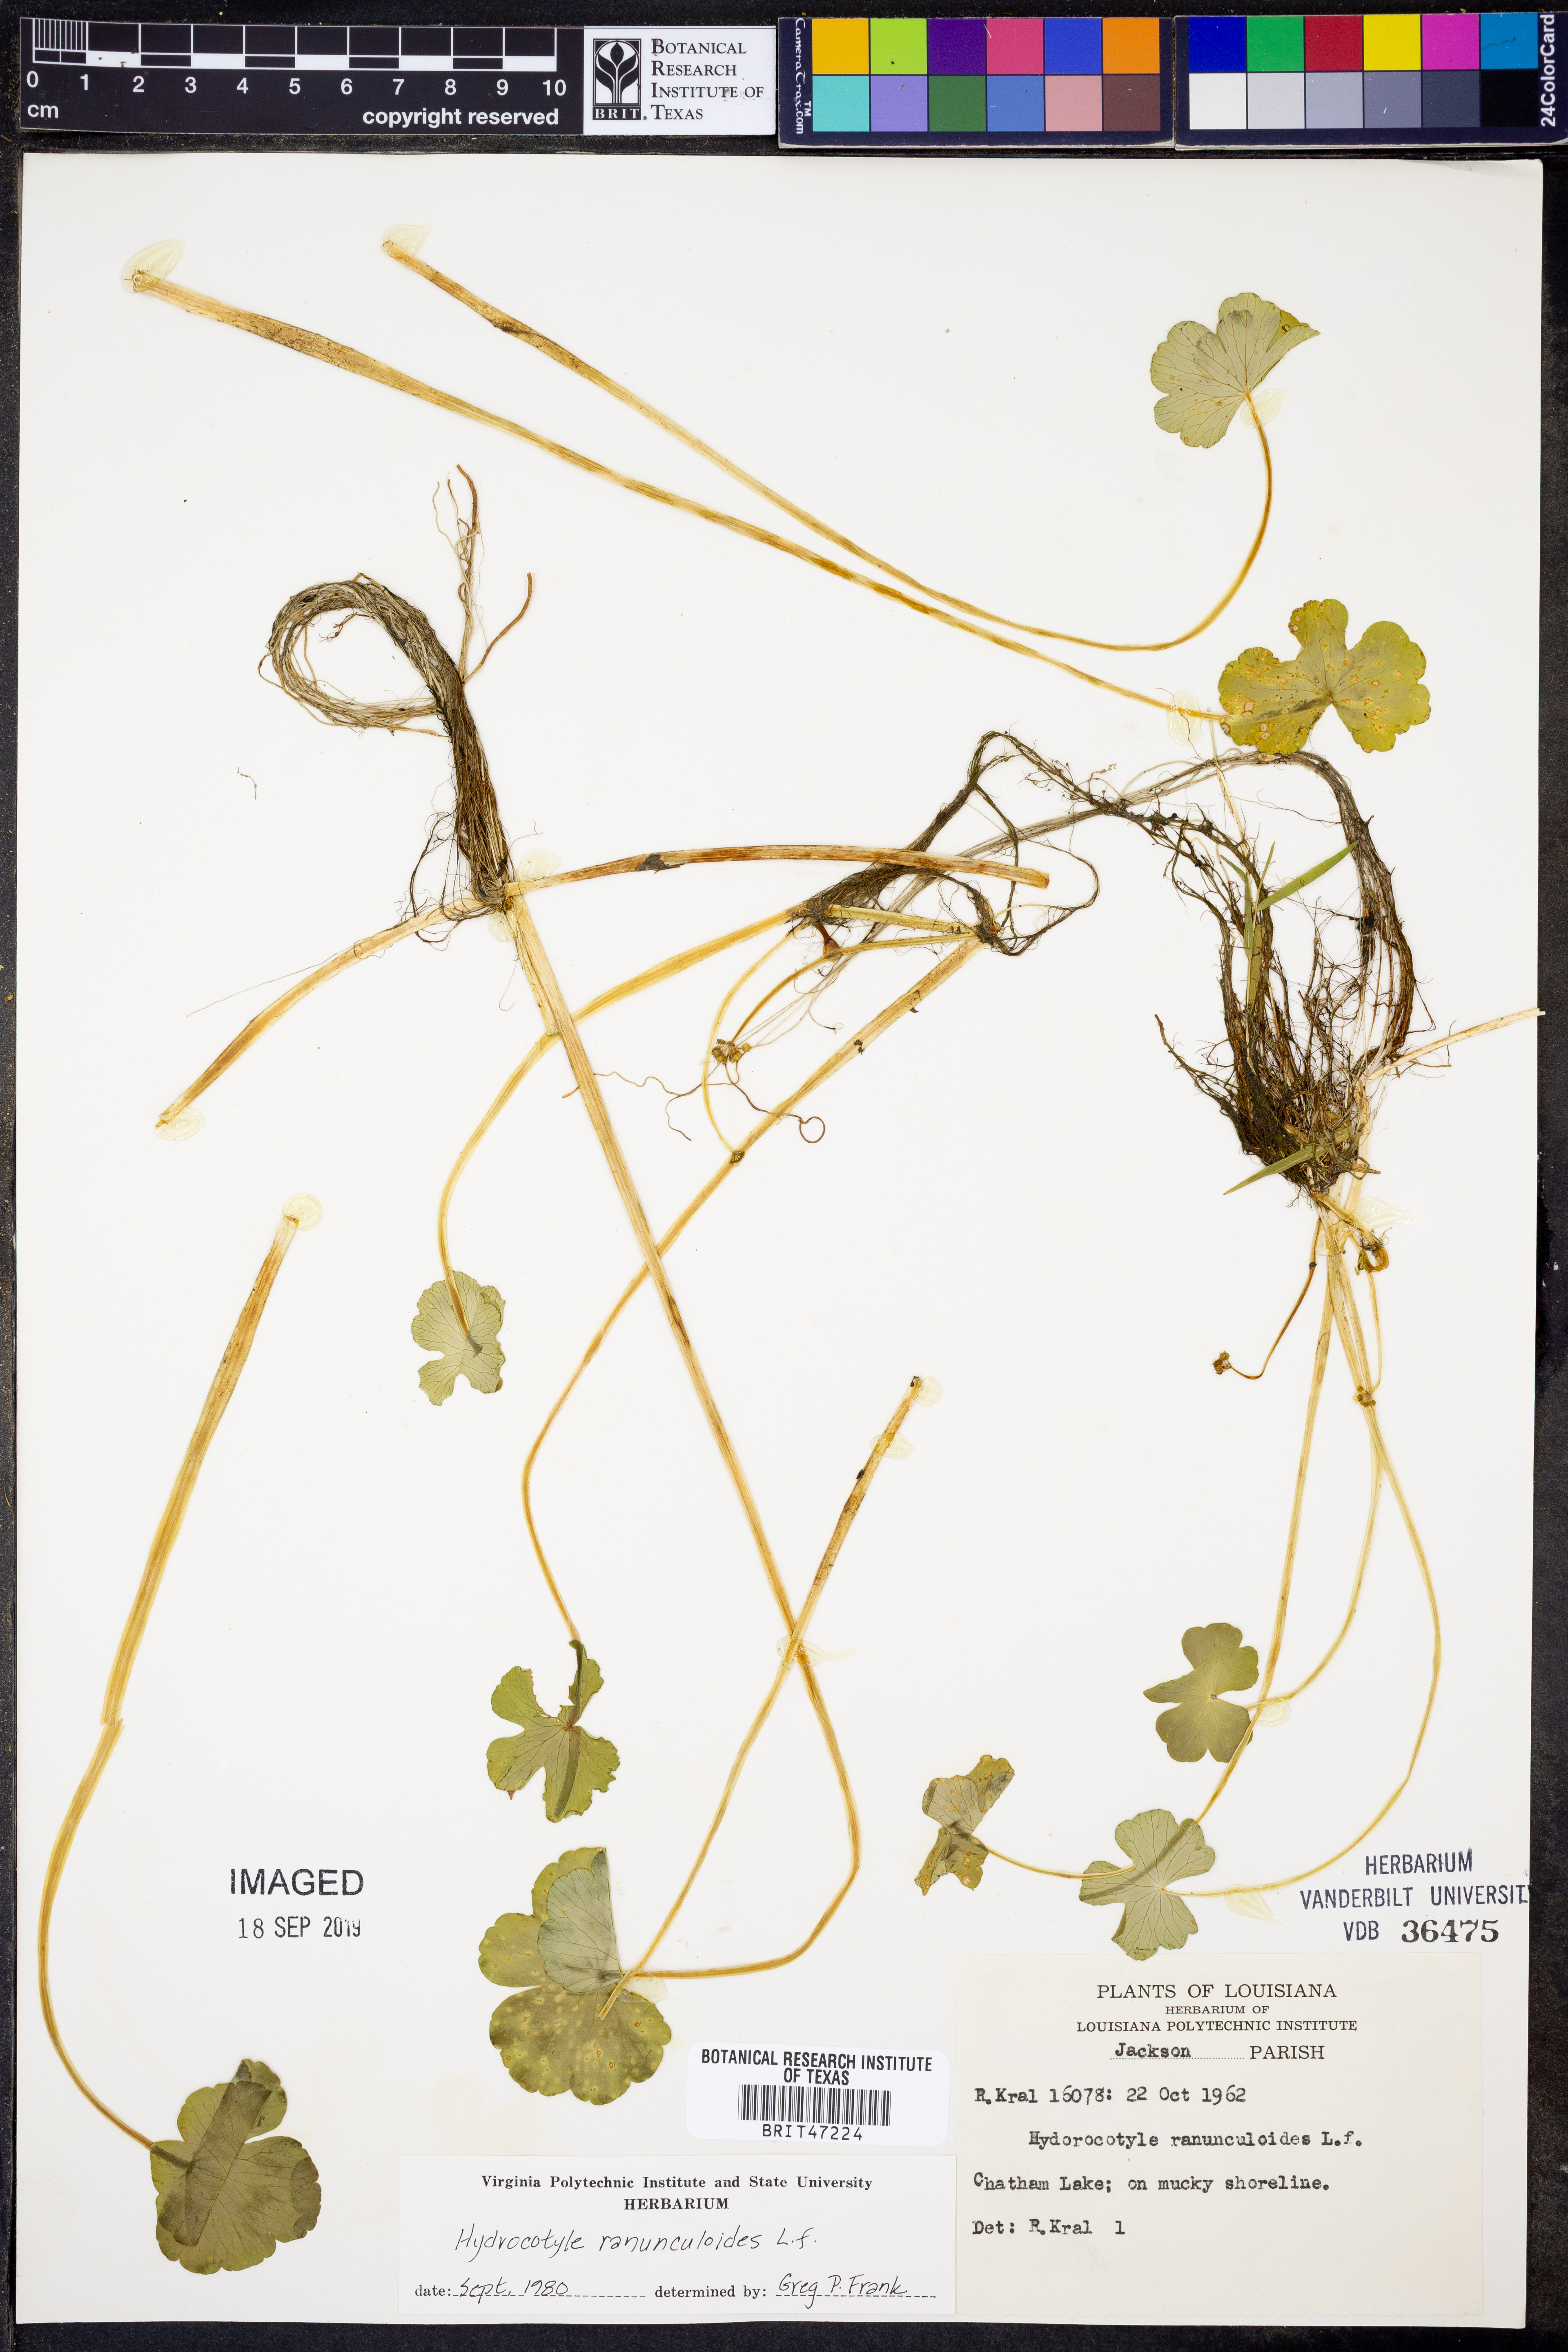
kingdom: Plantae
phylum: Tracheophyta
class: Polypodiopsida
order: Schizaeales
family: Anemiaceae
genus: Anemia
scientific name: Anemia karwinskyana
